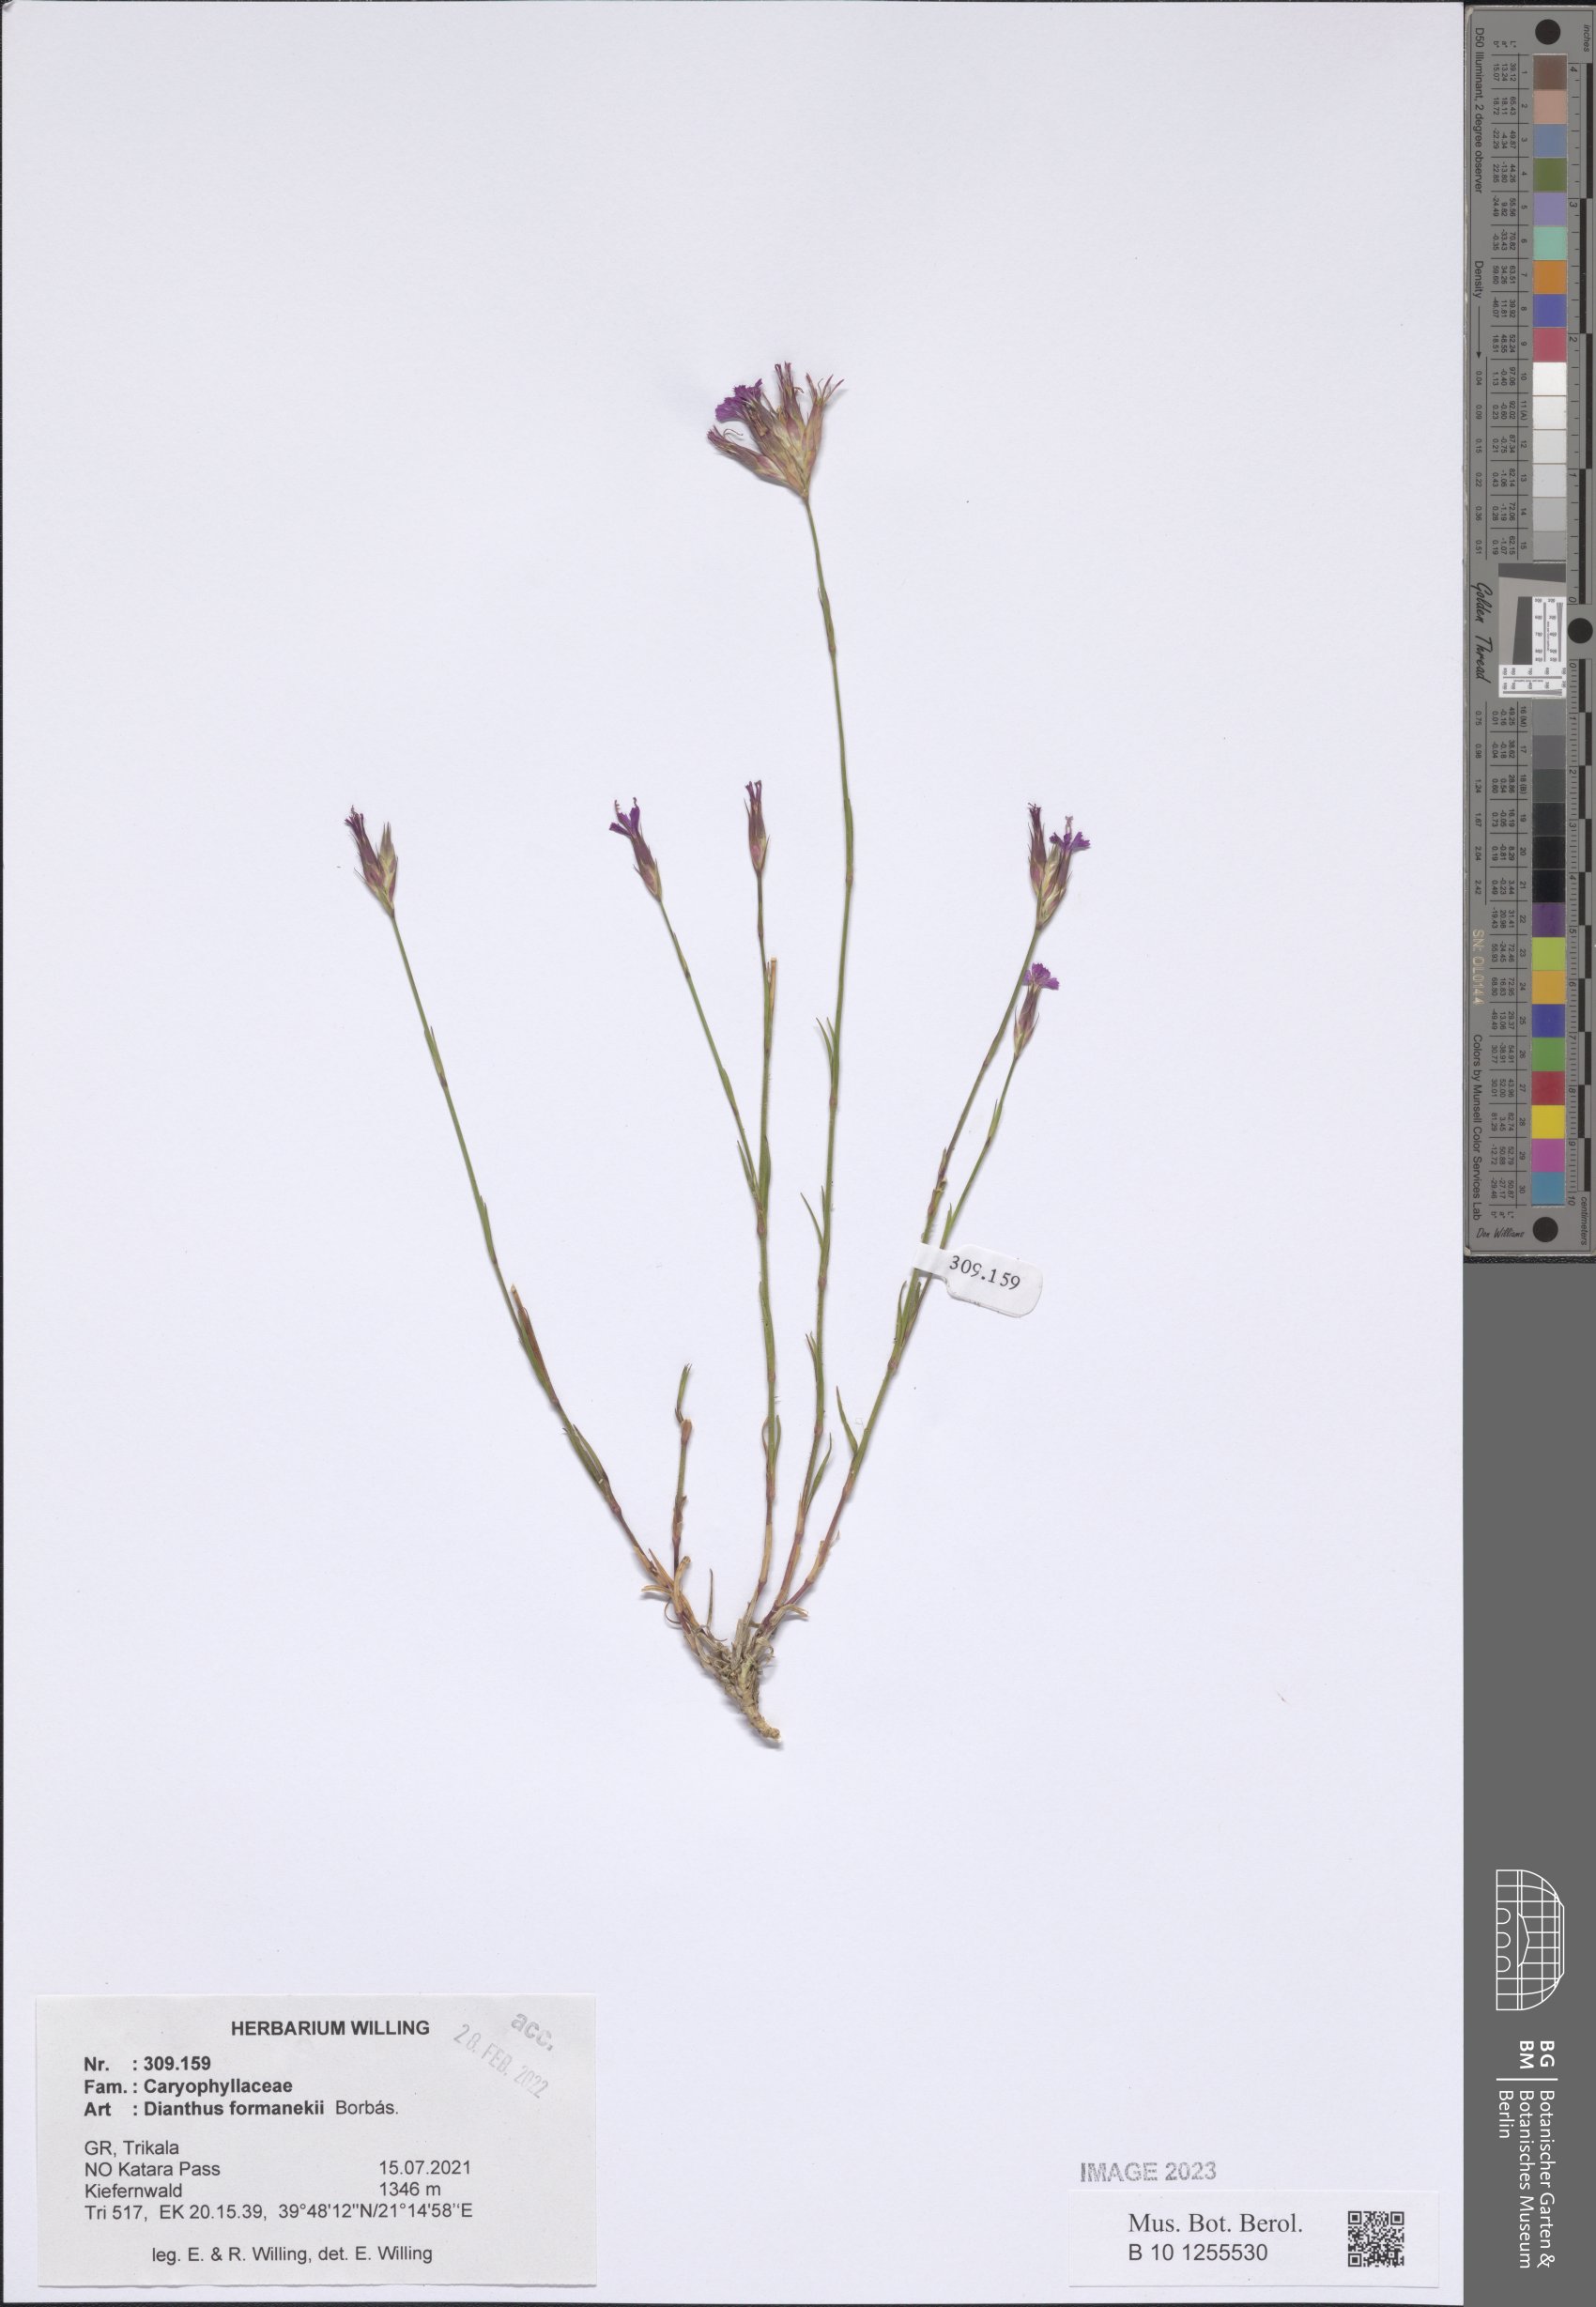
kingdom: Plantae
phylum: Tracheophyta
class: Magnoliopsida
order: Caryophyllales
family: Caryophyllaceae
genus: Dianthus
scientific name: Dianthus formanekii
